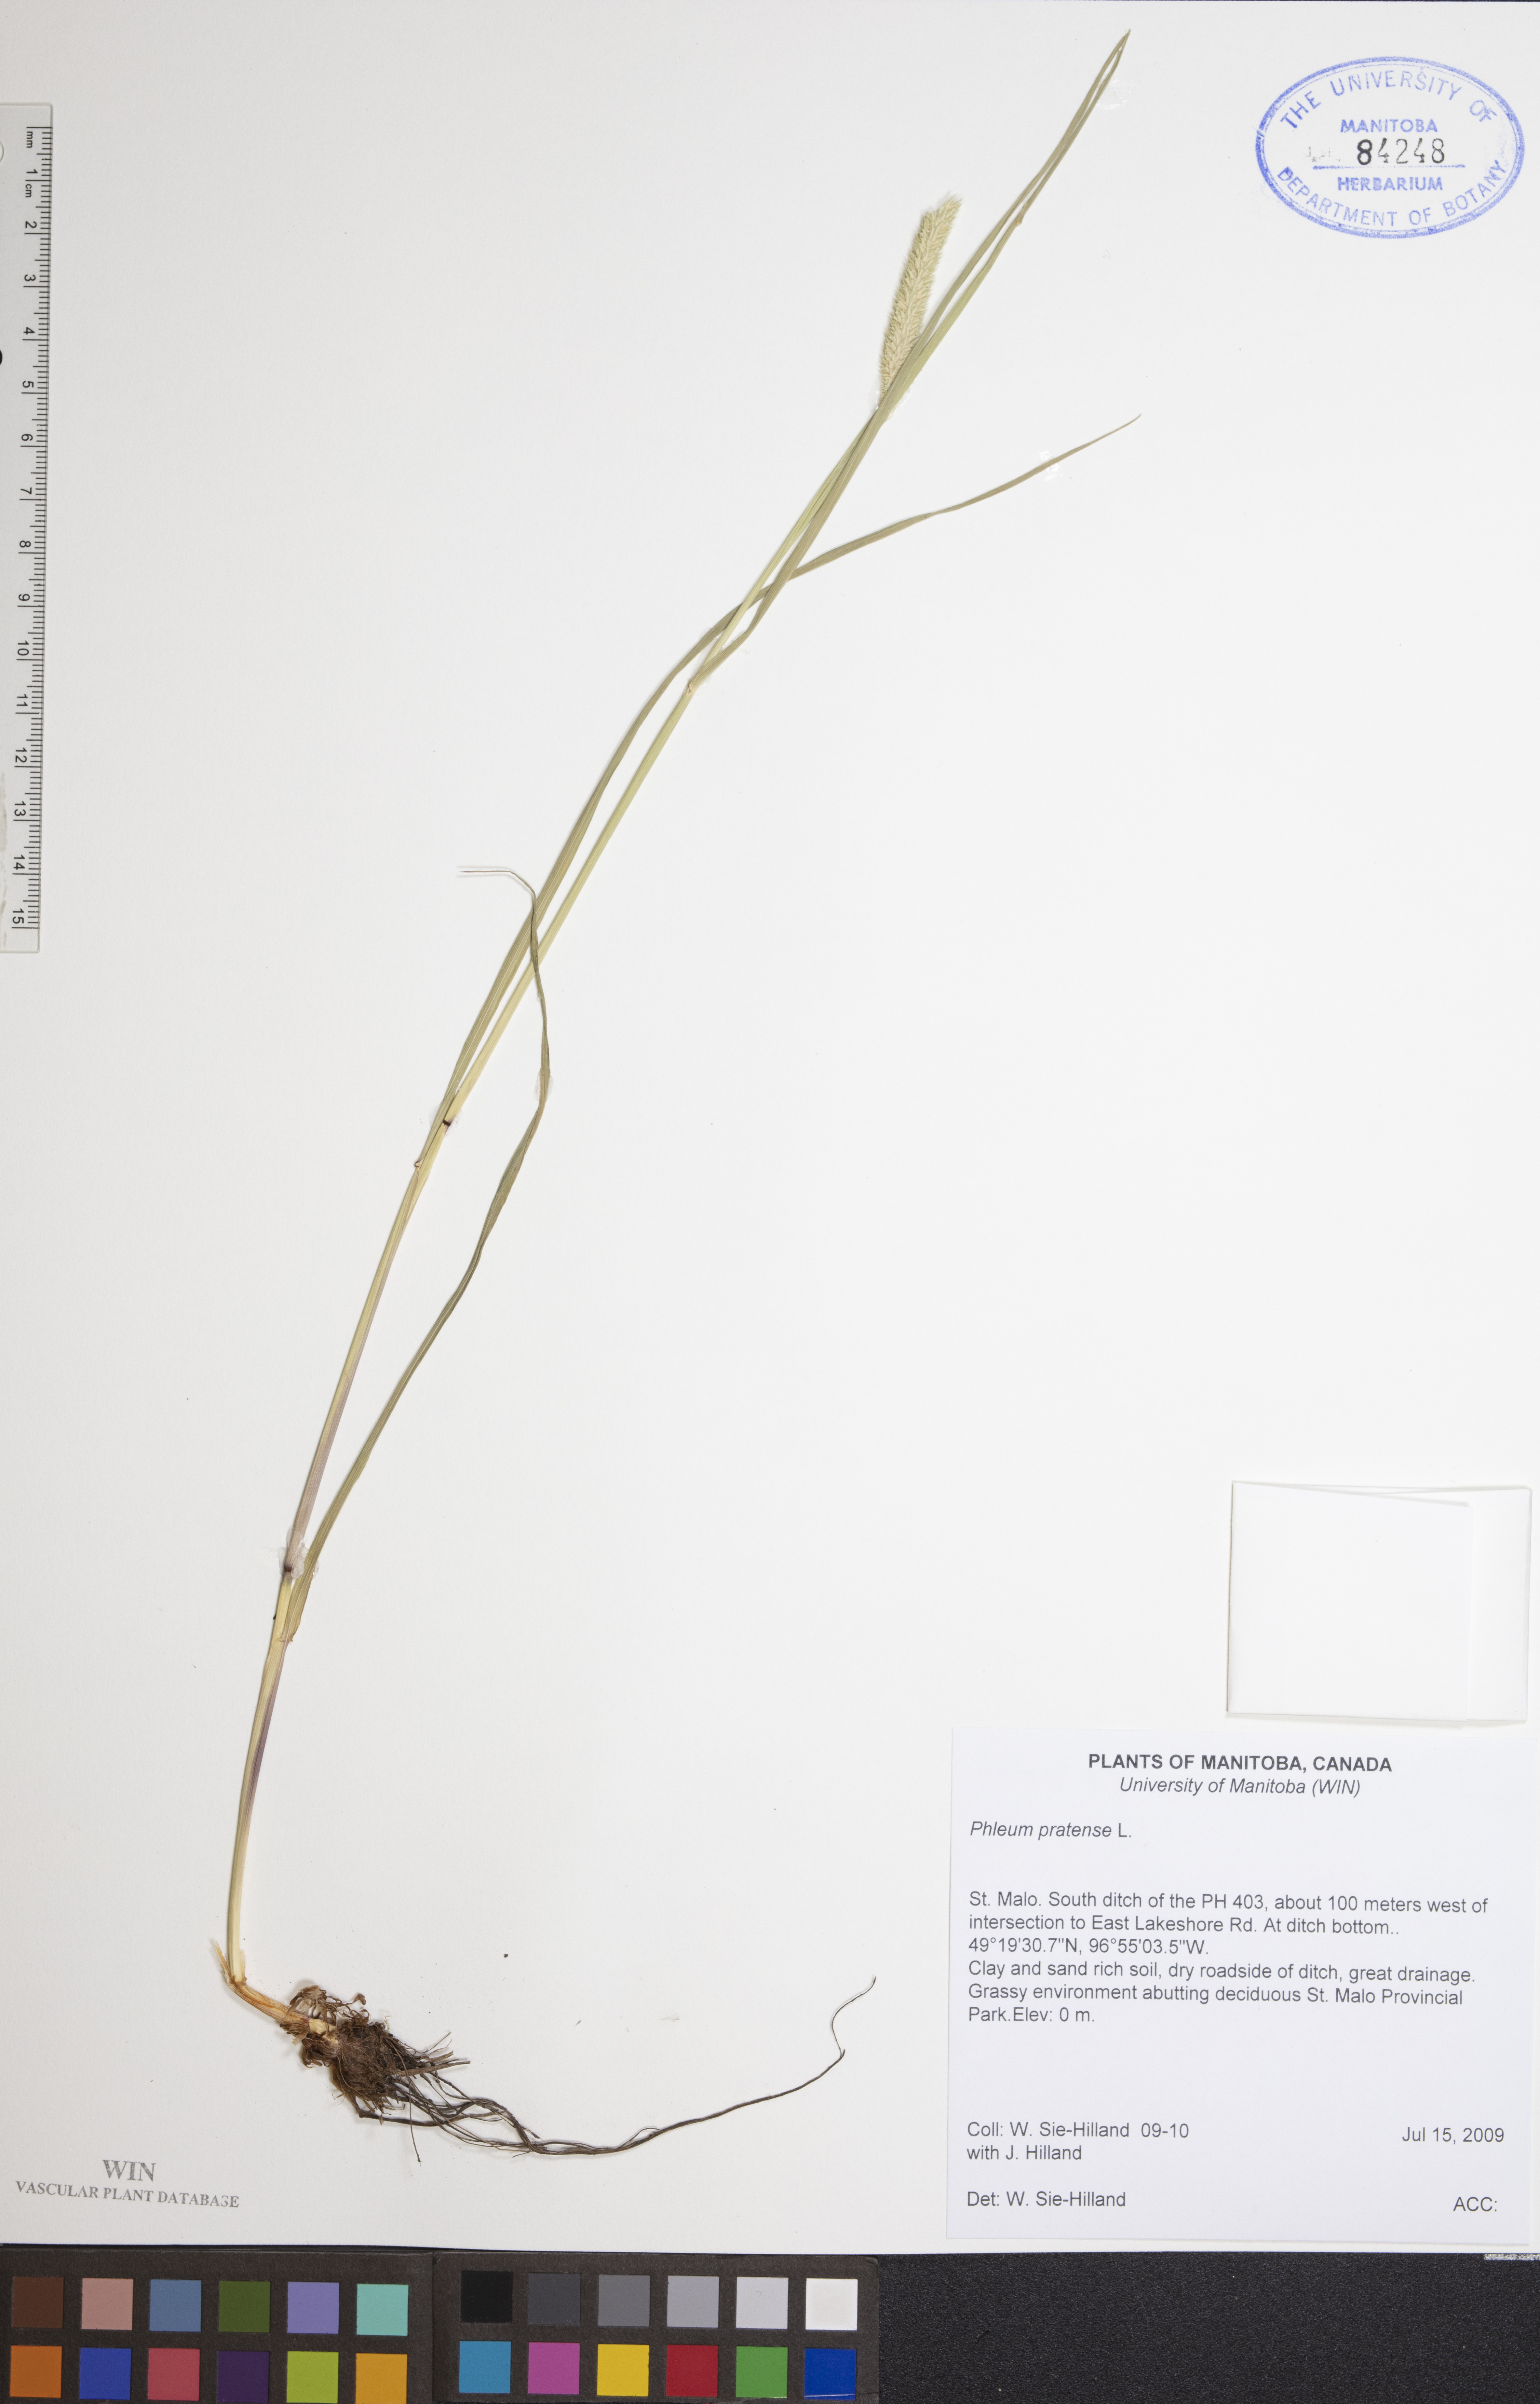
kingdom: Plantae
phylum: Tracheophyta
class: Liliopsida
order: Poales
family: Poaceae
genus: Phleum
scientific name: Phleum pratense
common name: Timothy grass
